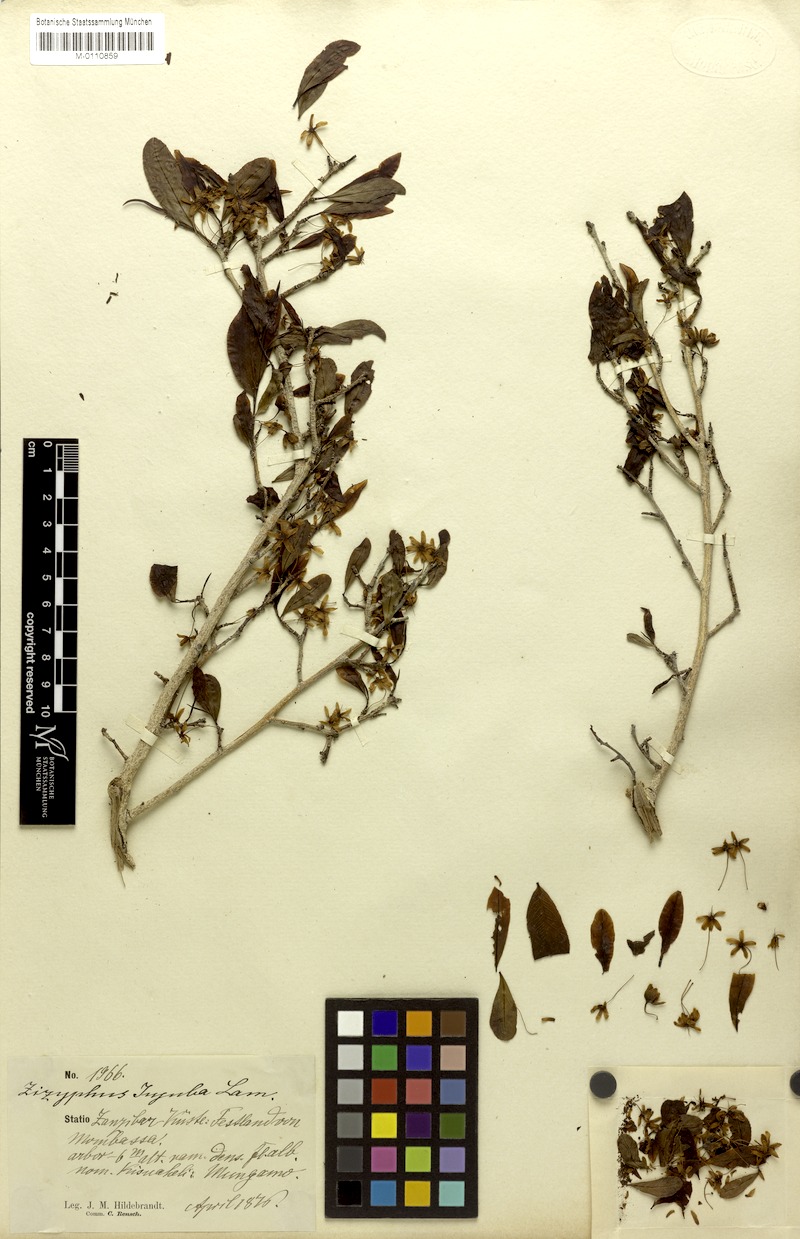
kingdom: Plantae
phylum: Tracheophyta
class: Magnoliopsida
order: Malpighiales
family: Ochnaceae
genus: Brackenridgea
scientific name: Brackenridgea zanguebarica
